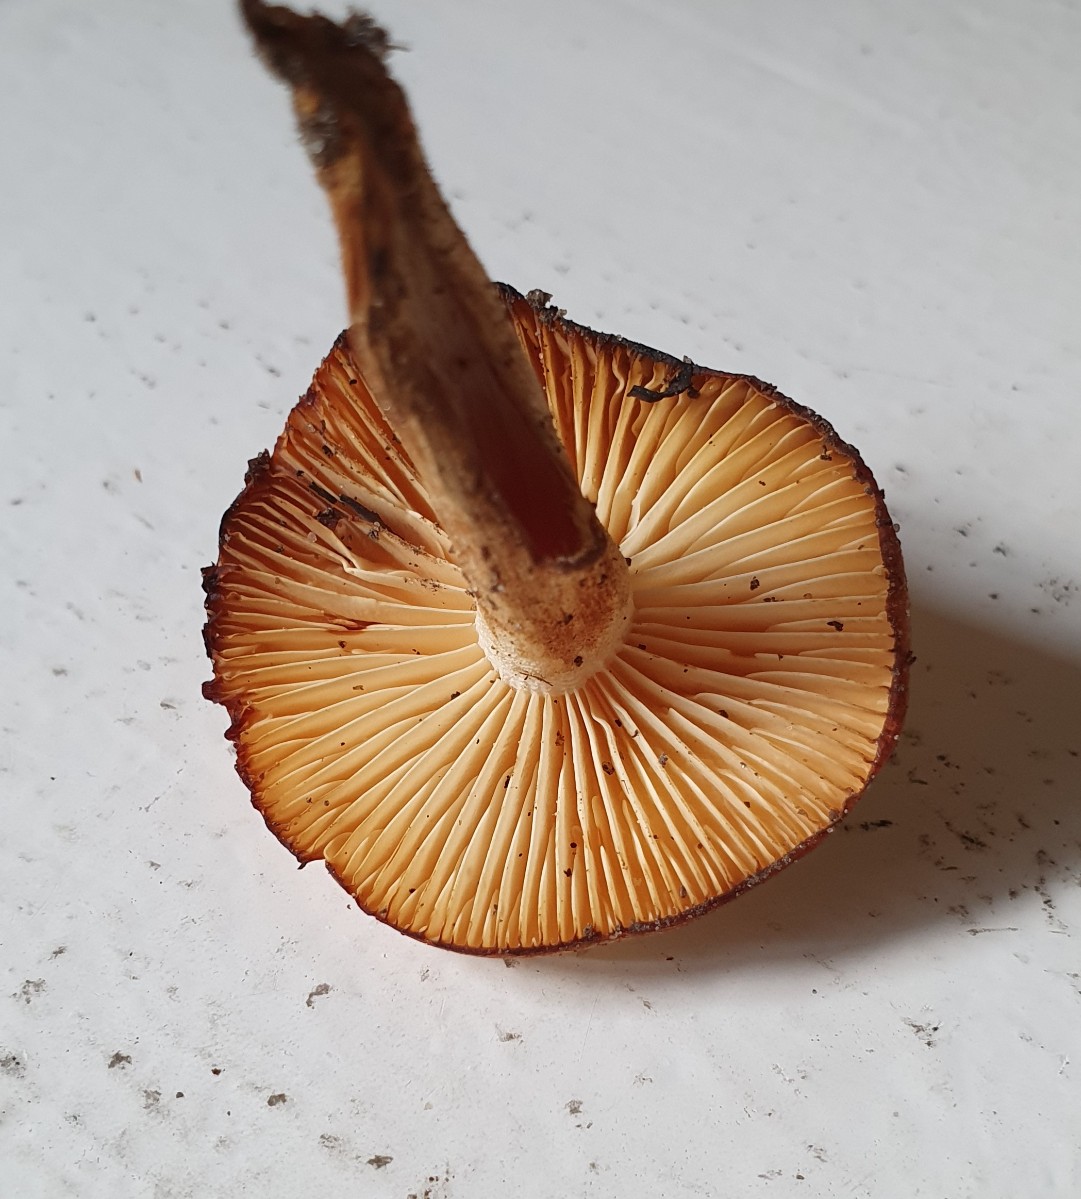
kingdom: Fungi
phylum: Basidiomycota
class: Agaricomycetes
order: Agaricales
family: Hygrophoraceae
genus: Hygrophorus
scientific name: Hygrophorus discoxanthus
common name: ildelugtende sneglehat
